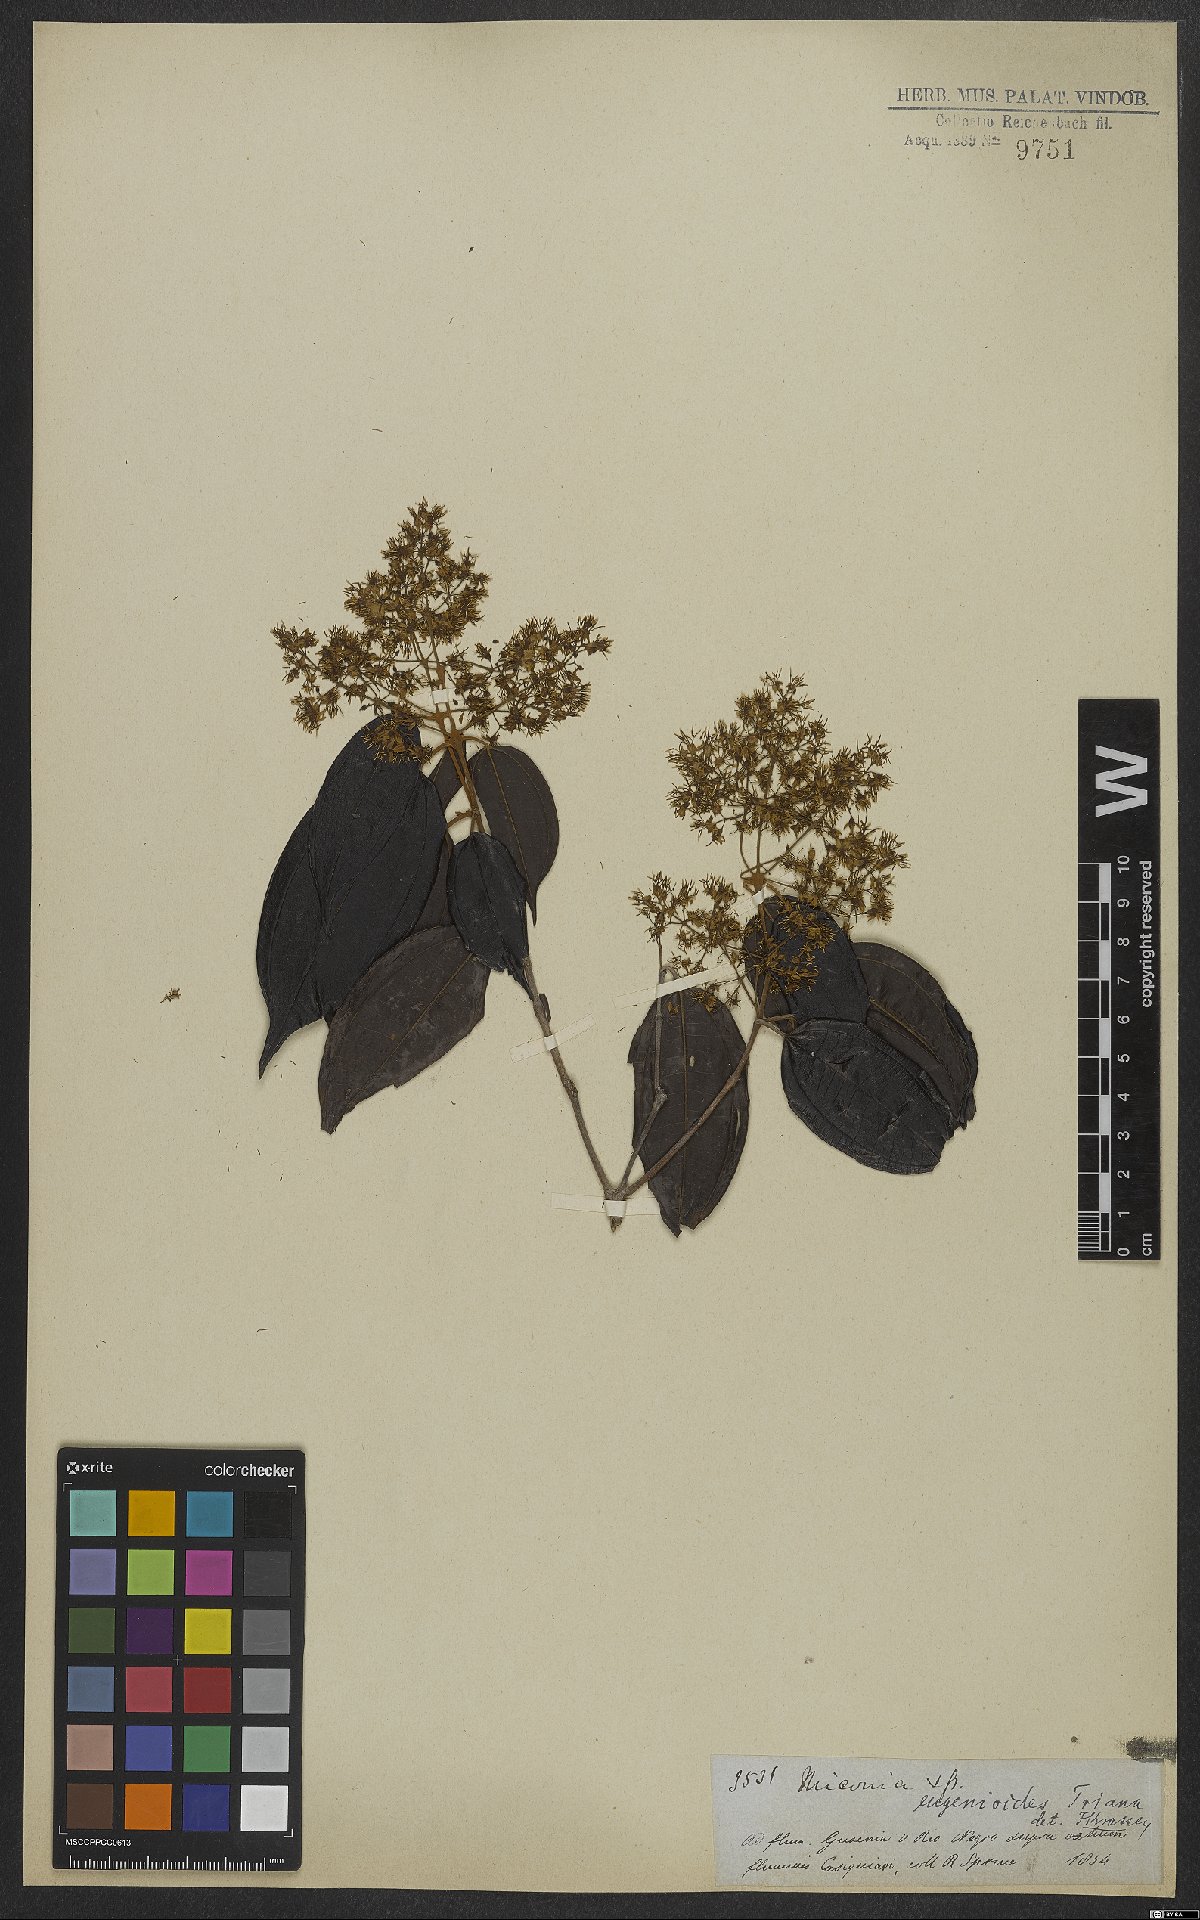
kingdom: Plantae
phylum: Tracheophyta
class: Magnoliopsida
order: Myrtales
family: Melastomataceae
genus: Miconia
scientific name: Miconia eugenioides
